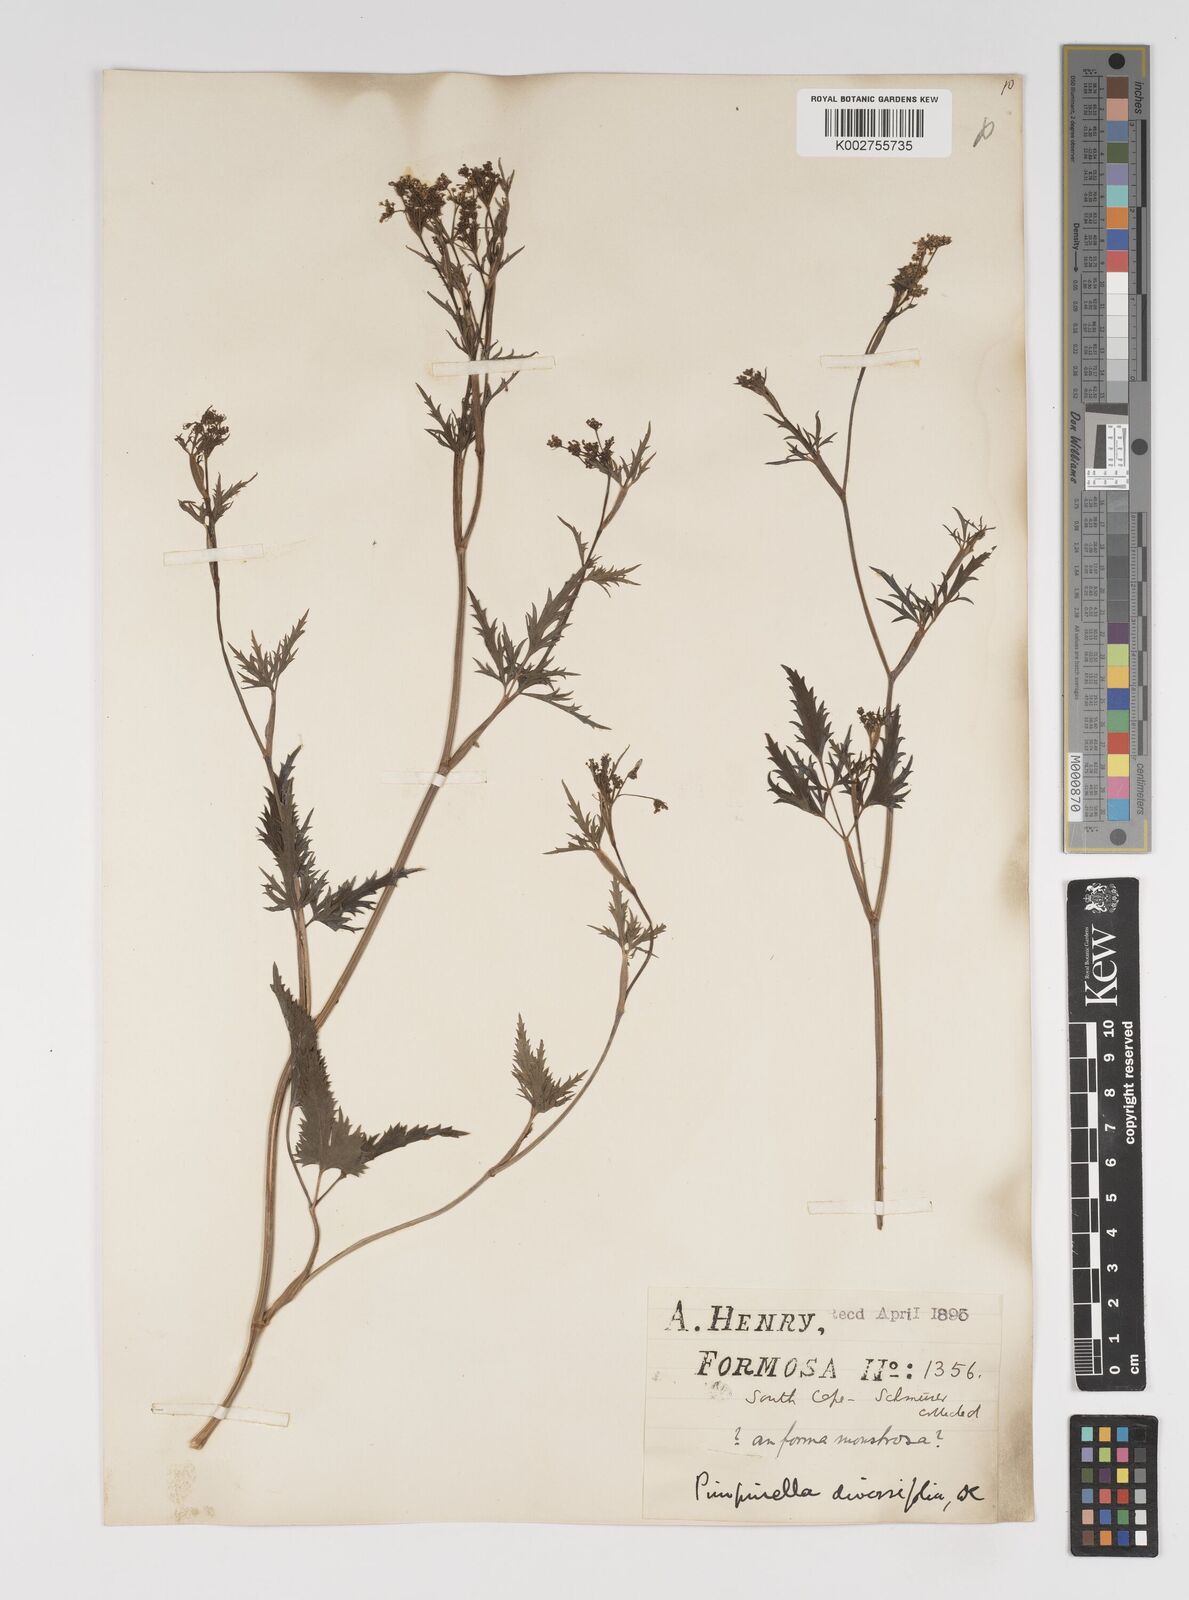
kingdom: Plantae
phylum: Tracheophyta
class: Magnoliopsida
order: Apiales
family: Apiaceae
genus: Pimpinella
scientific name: Pimpinella diversifolia
